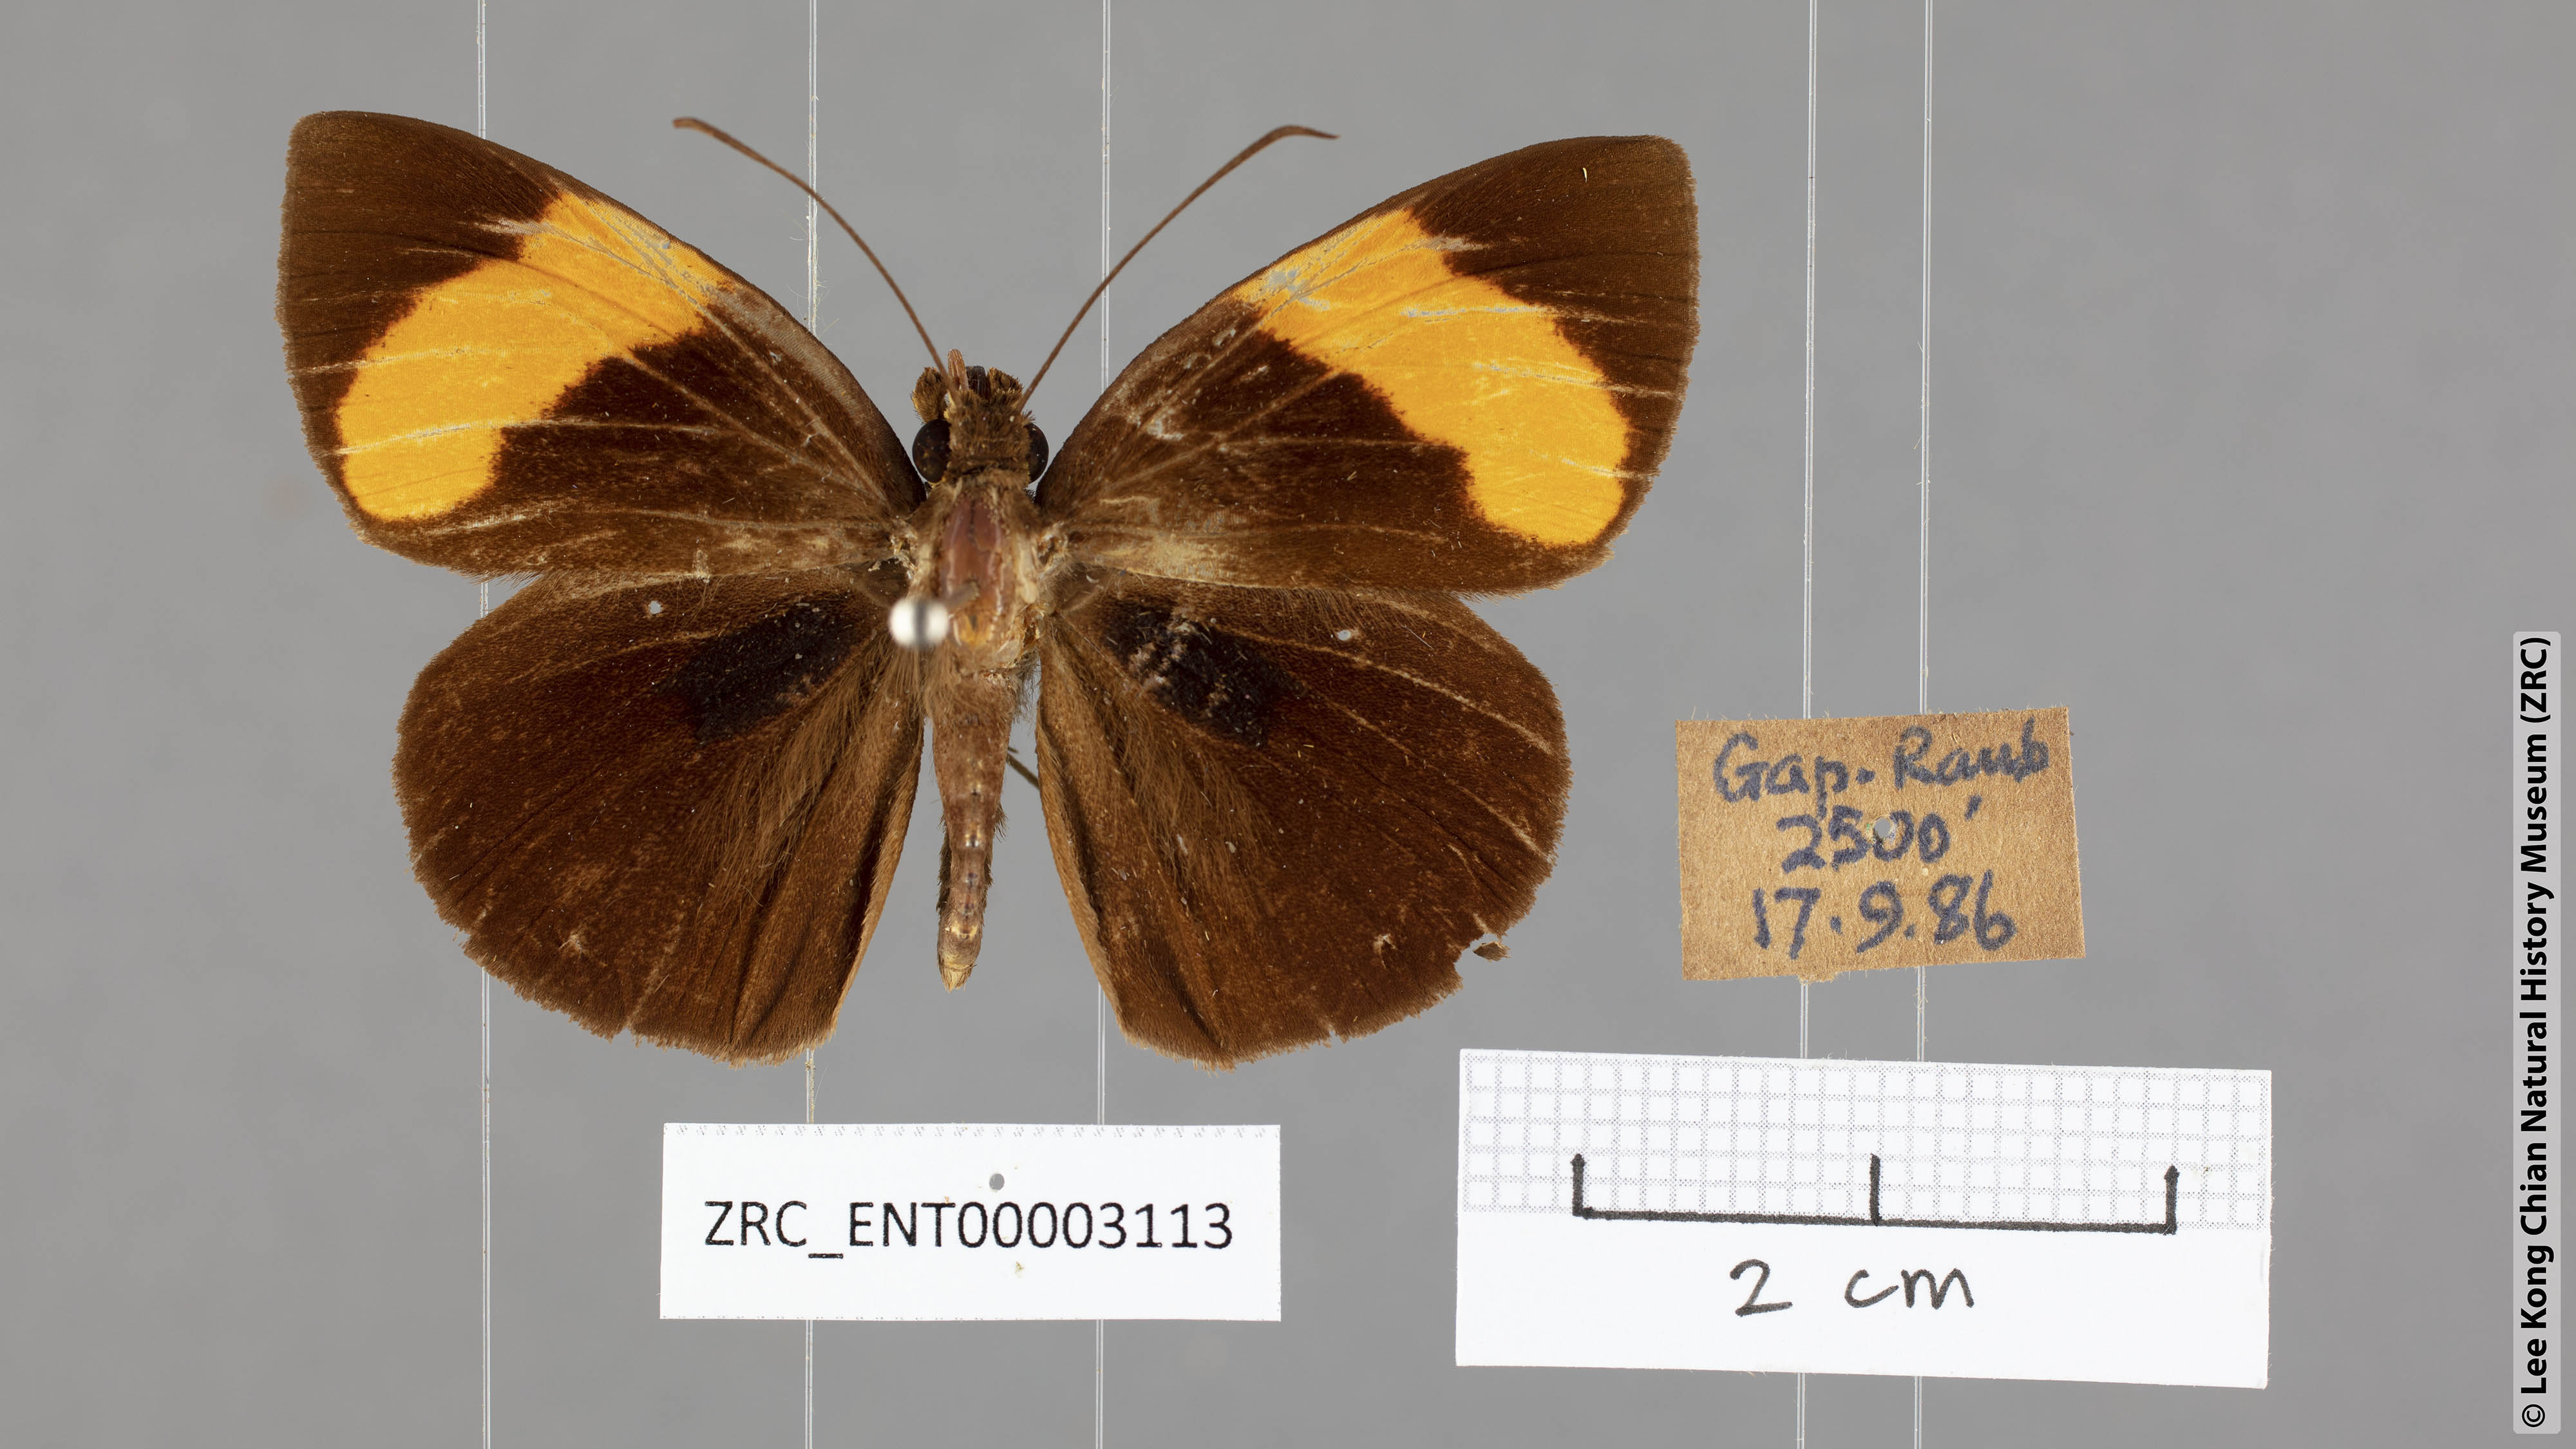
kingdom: Animalia
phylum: Arthropoda
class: Insecta
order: Lepidoptera
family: Hesperiidae
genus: Ancistroides
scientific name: Ancistroides armatus
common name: Red demon
